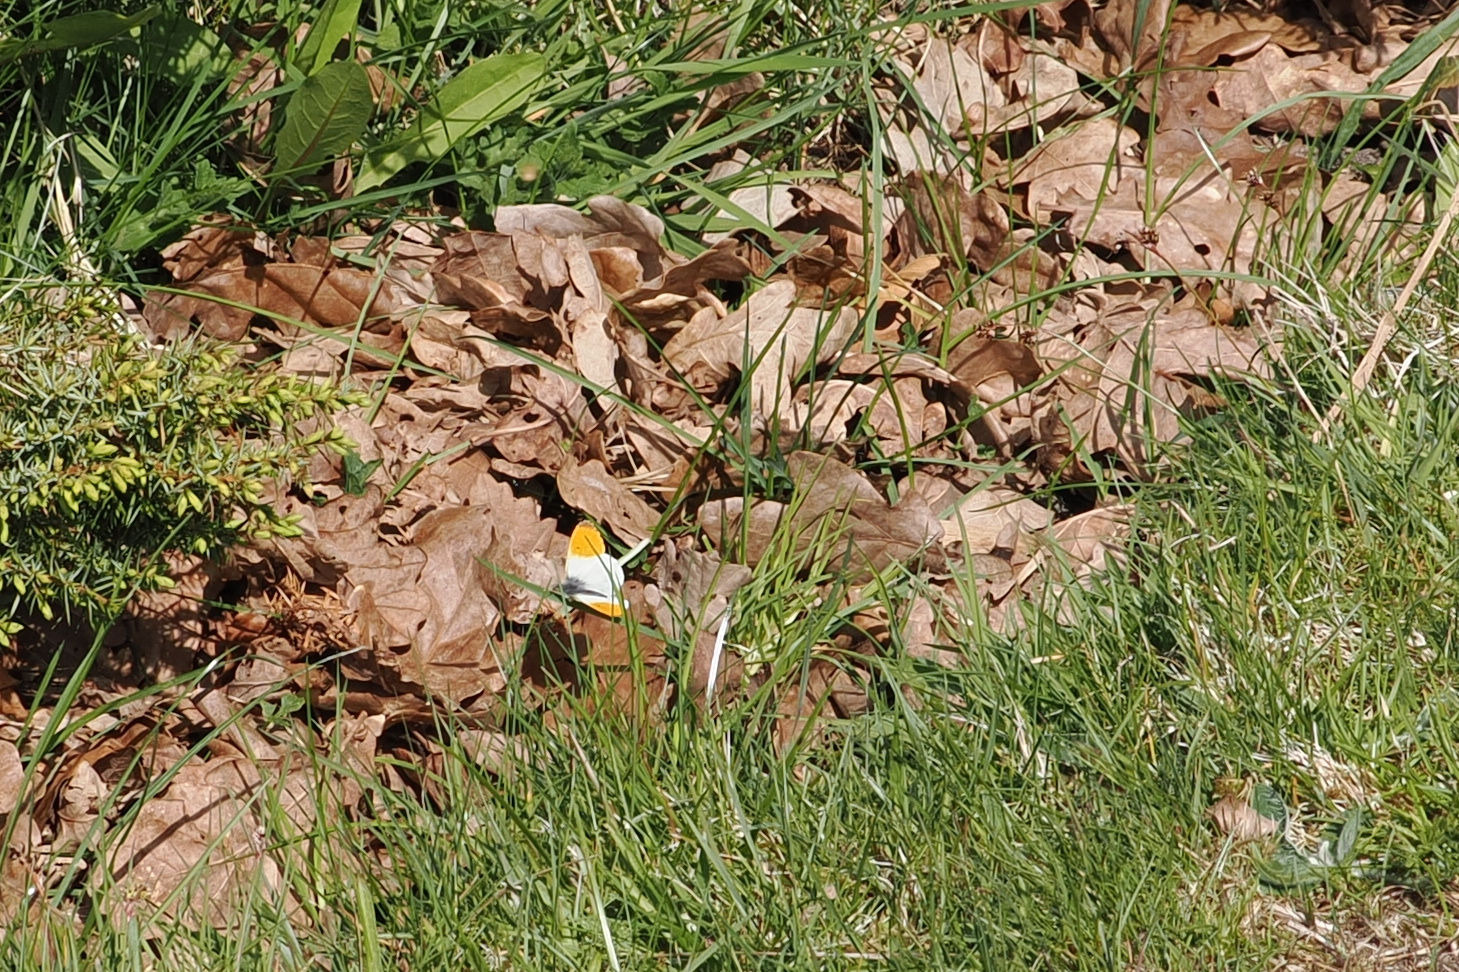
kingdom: Animalia
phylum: Arthropoda
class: Insecta
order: Lepidoptera
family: Pieridae
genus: Anthocharis
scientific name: Anthocharis cardamines
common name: Aurora
